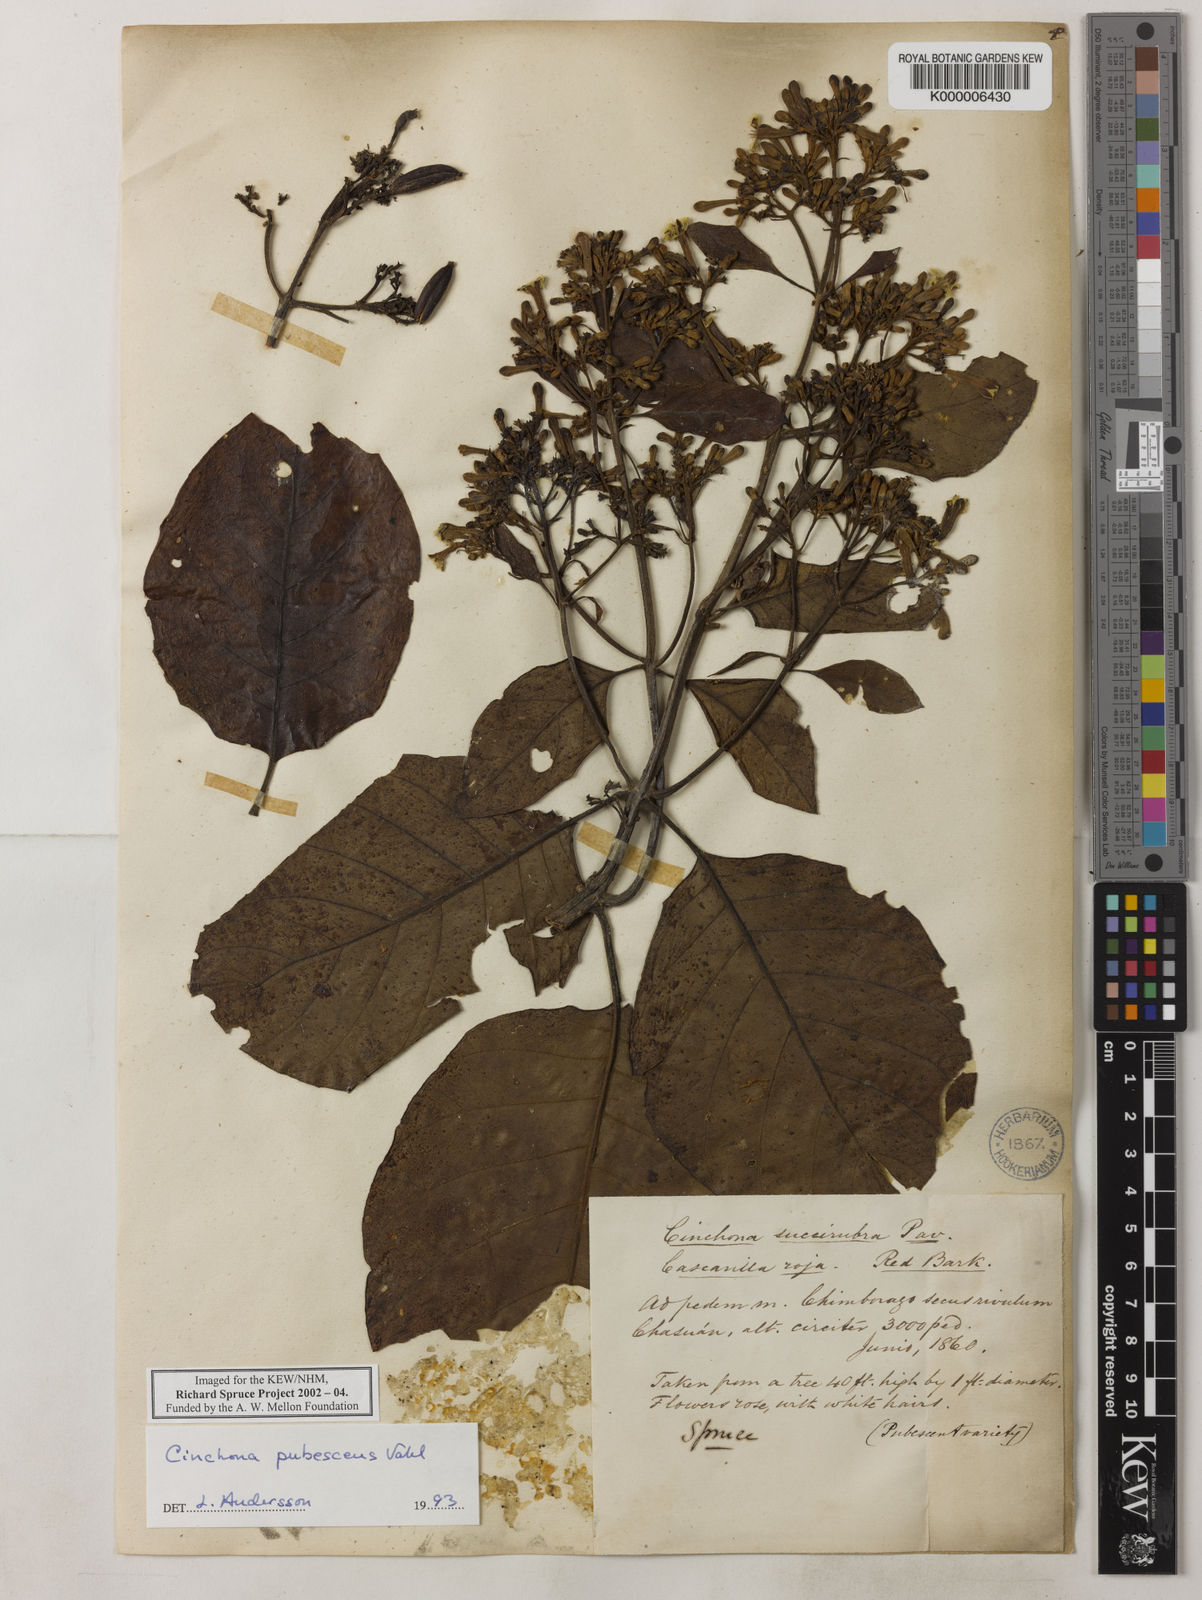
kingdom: Plantae
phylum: Tracheophyta
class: Magnoliopsida
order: Gentianales
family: Rubiaceae
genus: Cinchona
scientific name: Cinchona pubescens
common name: Quinine
